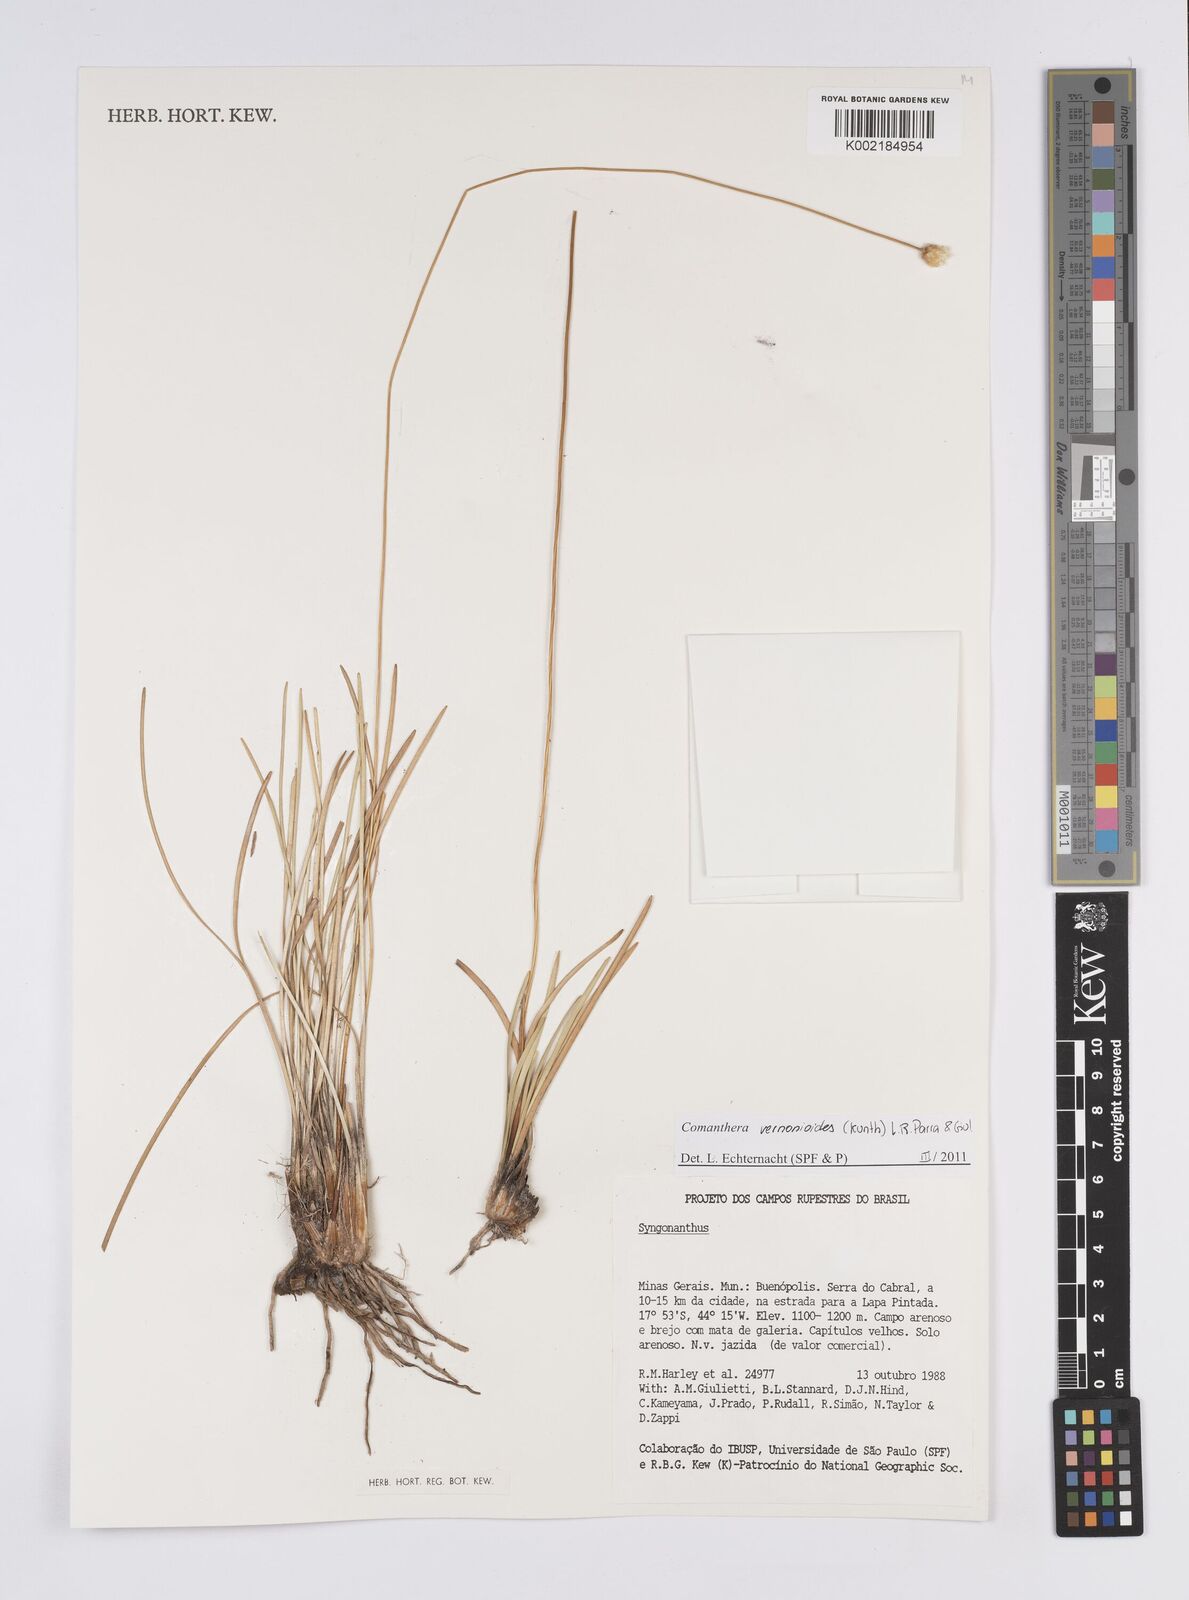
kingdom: Plantae
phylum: Tracheophyta
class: Liliopsida
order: Poales
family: Eriocaulaceae
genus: Comanthera
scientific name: Comanthera centauroides
